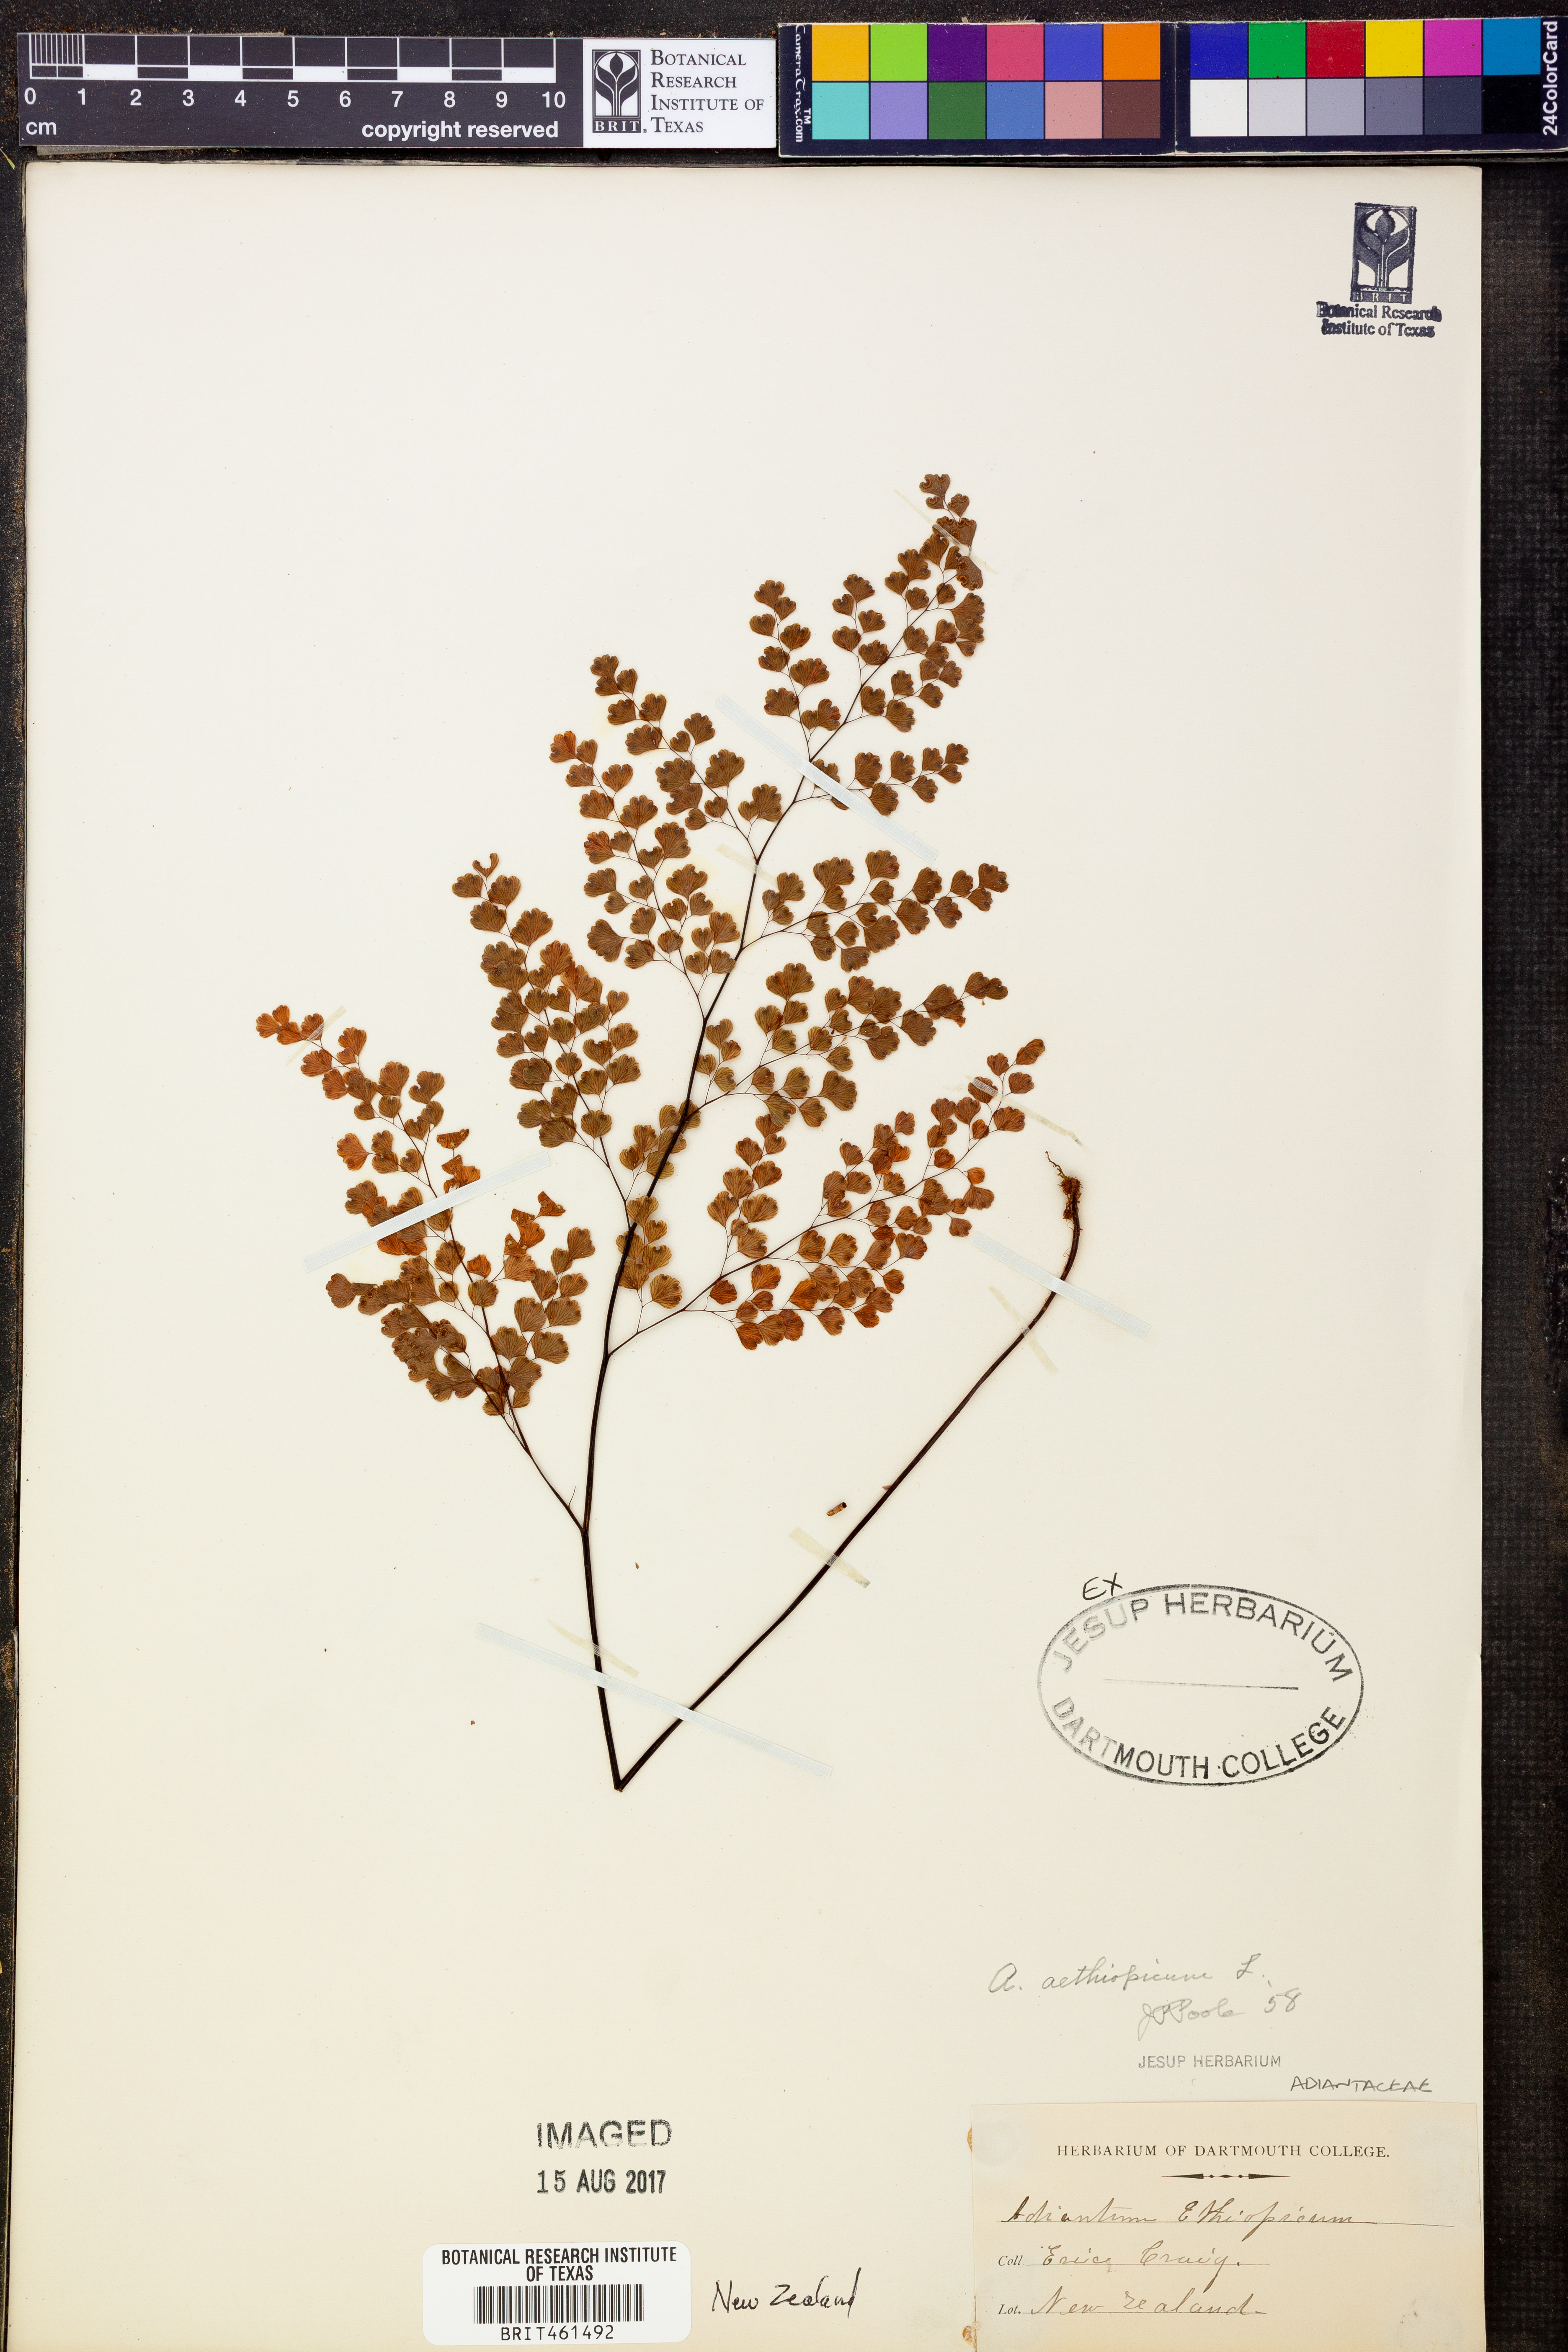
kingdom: Plantae
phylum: Tracheophyta
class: Polypodiopsida
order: Polypodiales
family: Pteridaceae
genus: Adiantum
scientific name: Adiantum aethiopicum
